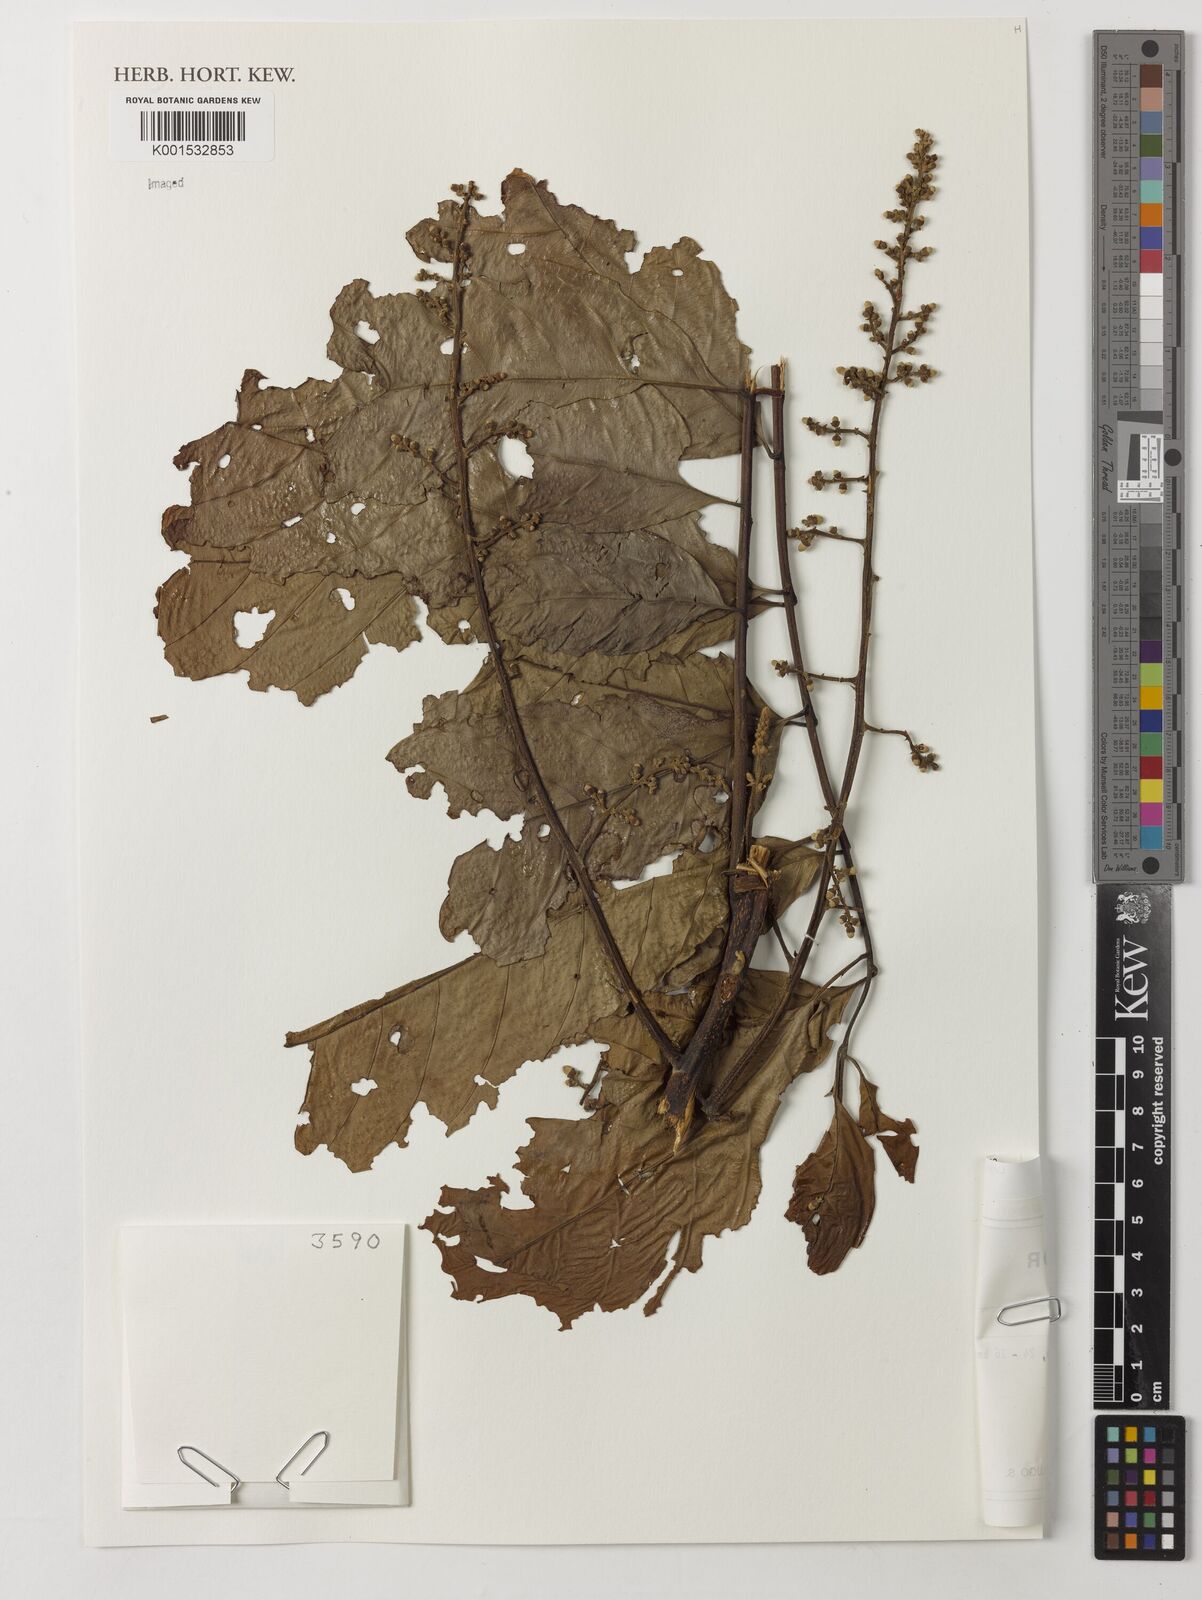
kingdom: Plantae
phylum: Tracheophyta
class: Magnoliopsida
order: Sapindales
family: Meliaceae
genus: Guarea
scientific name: Guarea guidonia
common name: American muskwood
